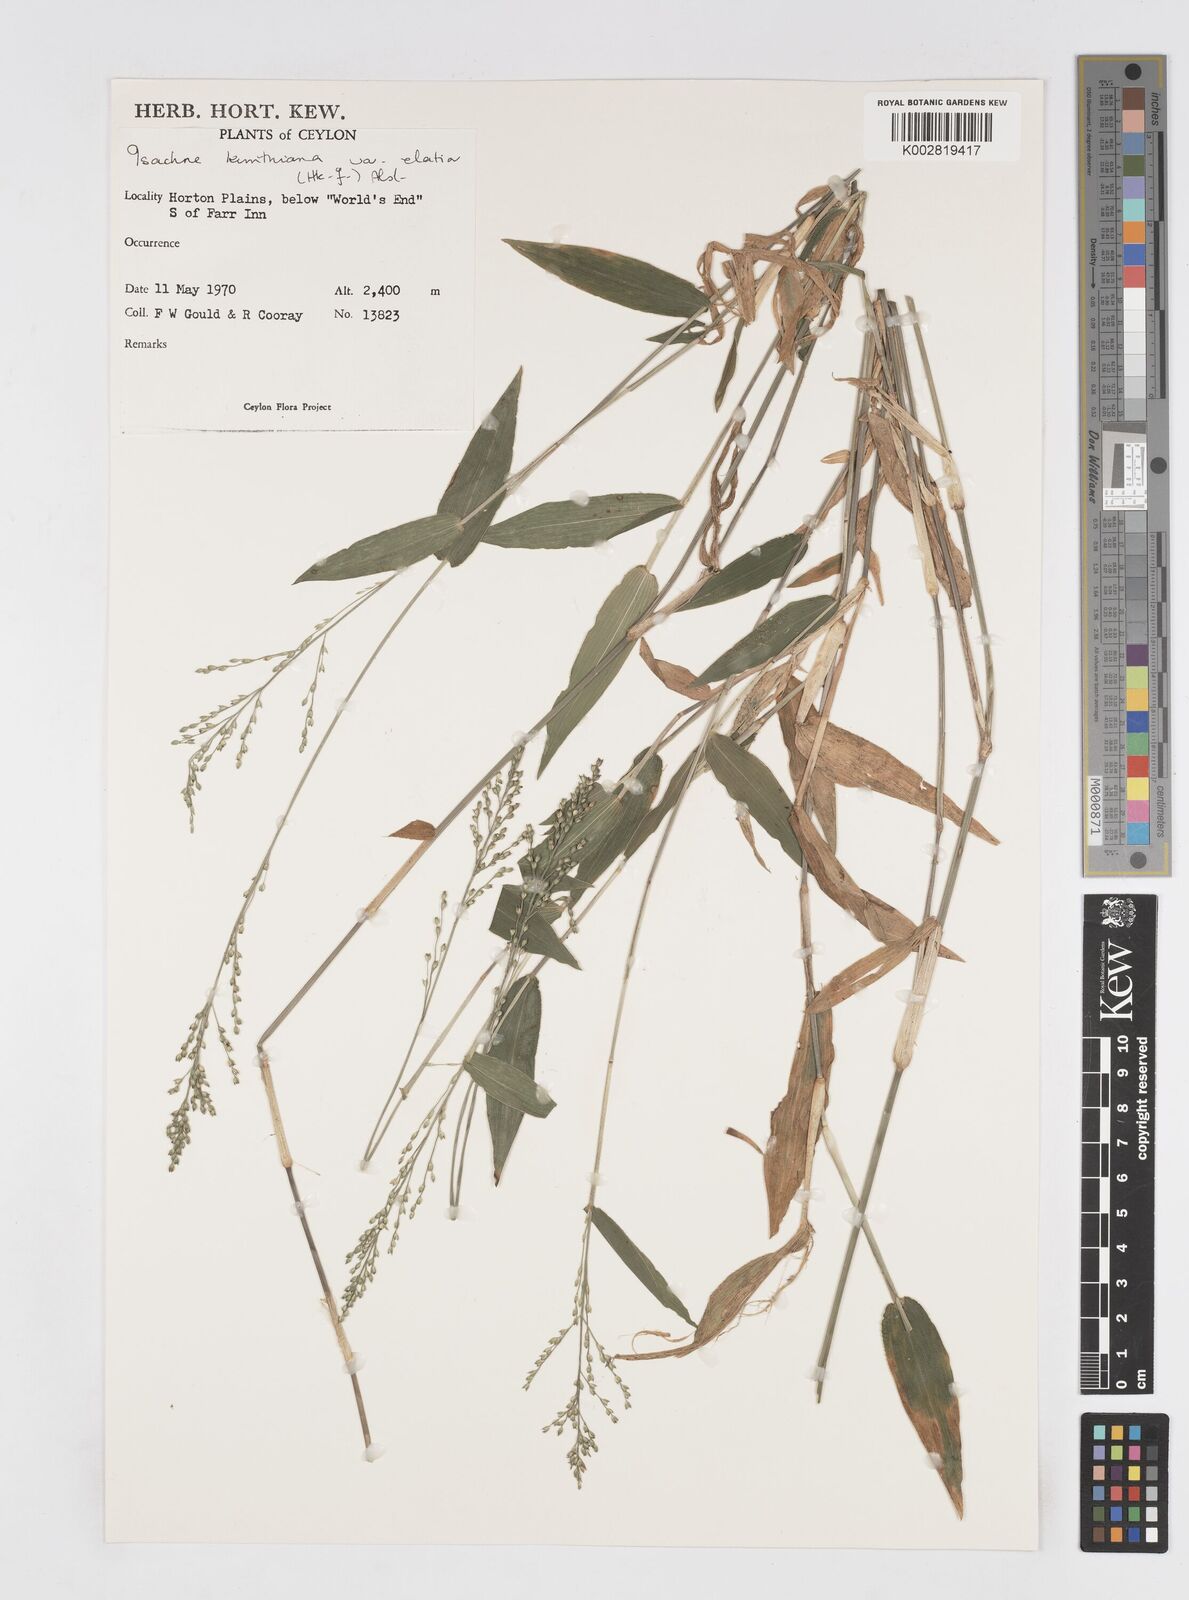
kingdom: Plantae
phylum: Tracheophyta
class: Liliopsida
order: Poales
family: Poaceae
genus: Isachne
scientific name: Isachne kunthiana
